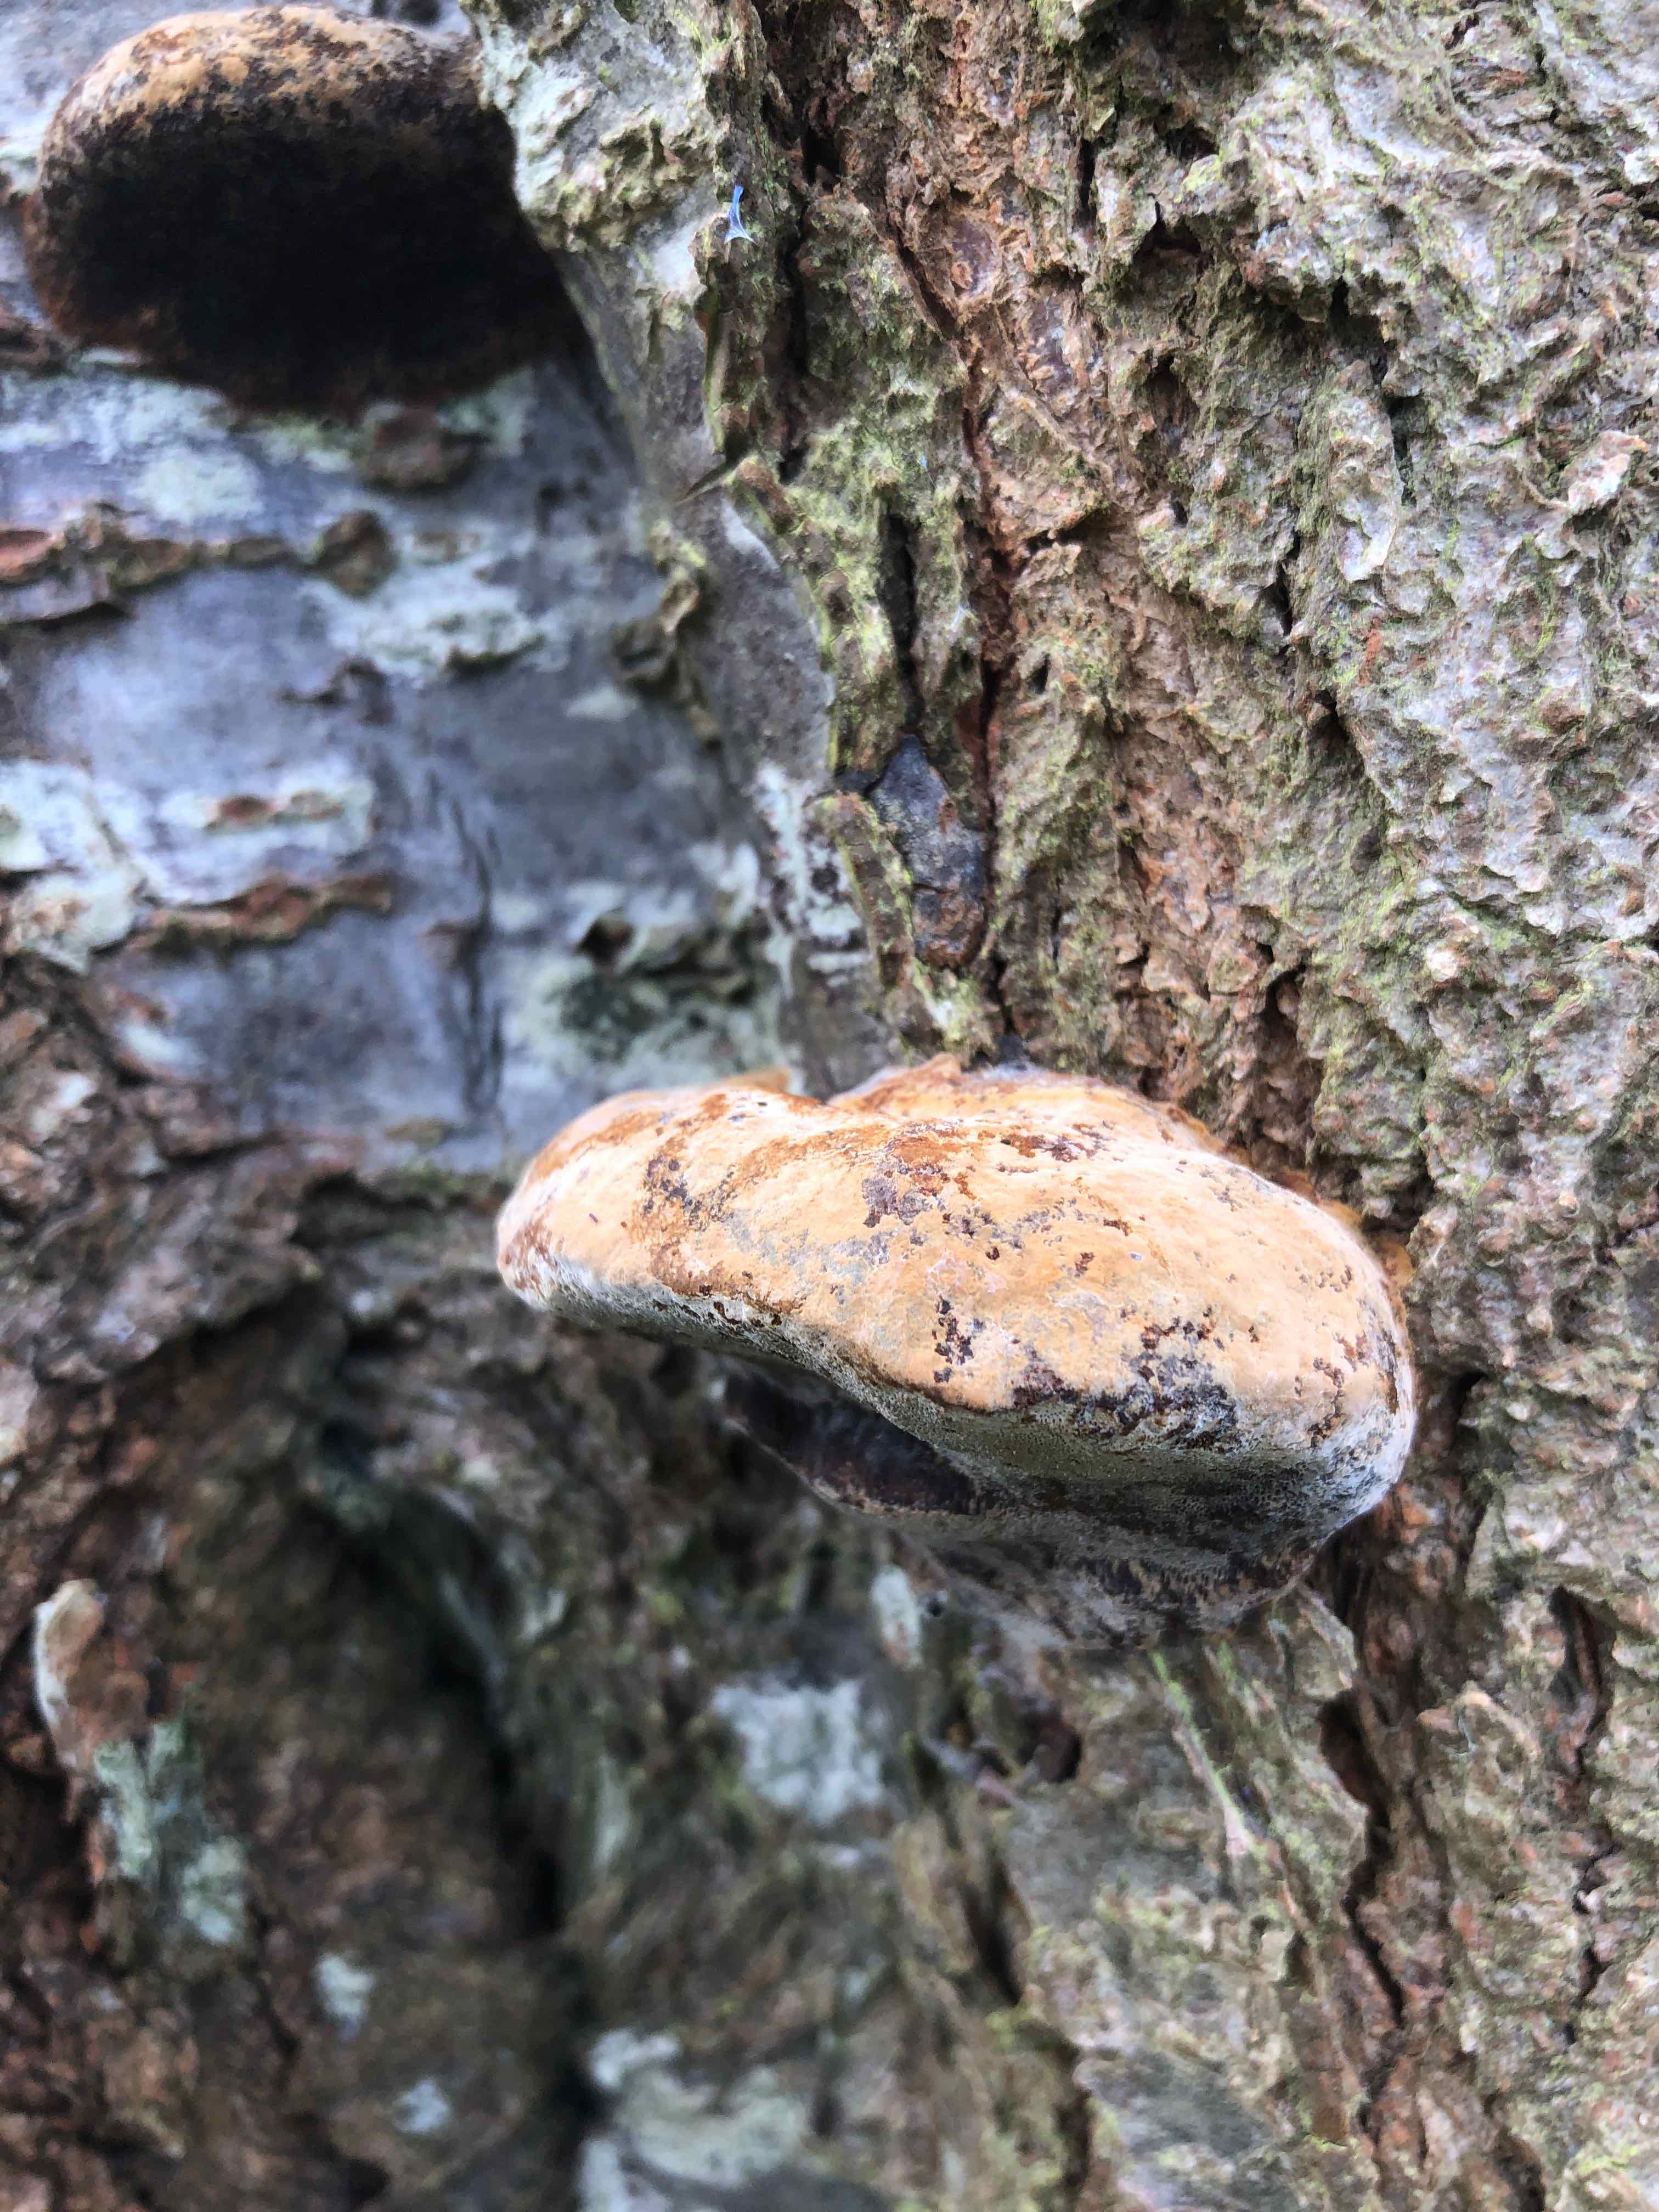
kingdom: Fungi
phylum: Basidiomycota
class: Agaricomycetes
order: Hymenochaetales
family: Hymenochaetaceae
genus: Phellinus
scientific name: Phellinus pomaceus
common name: blomme-ildporesvamp
